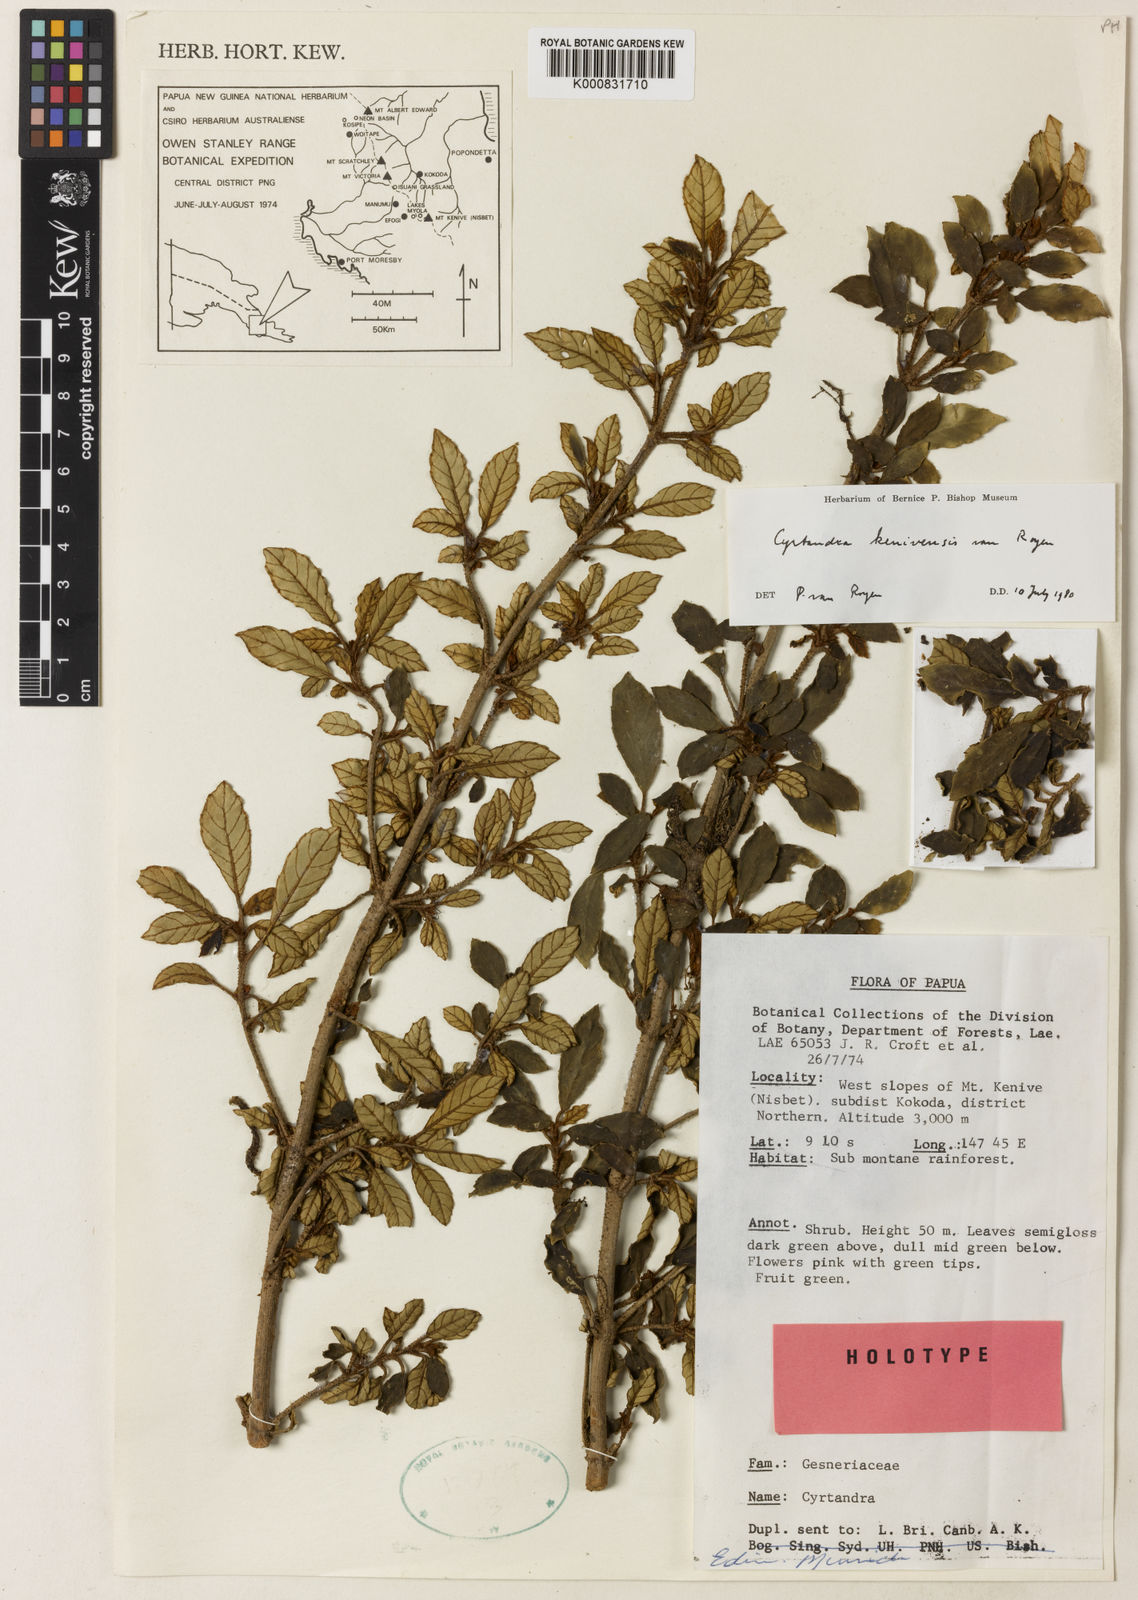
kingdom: Plantae
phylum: Tracheophyta
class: Magnoliopsida
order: Lamiales
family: Gesneriaceae
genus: Cyrtandra
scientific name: Cyrtandra kenivensis
